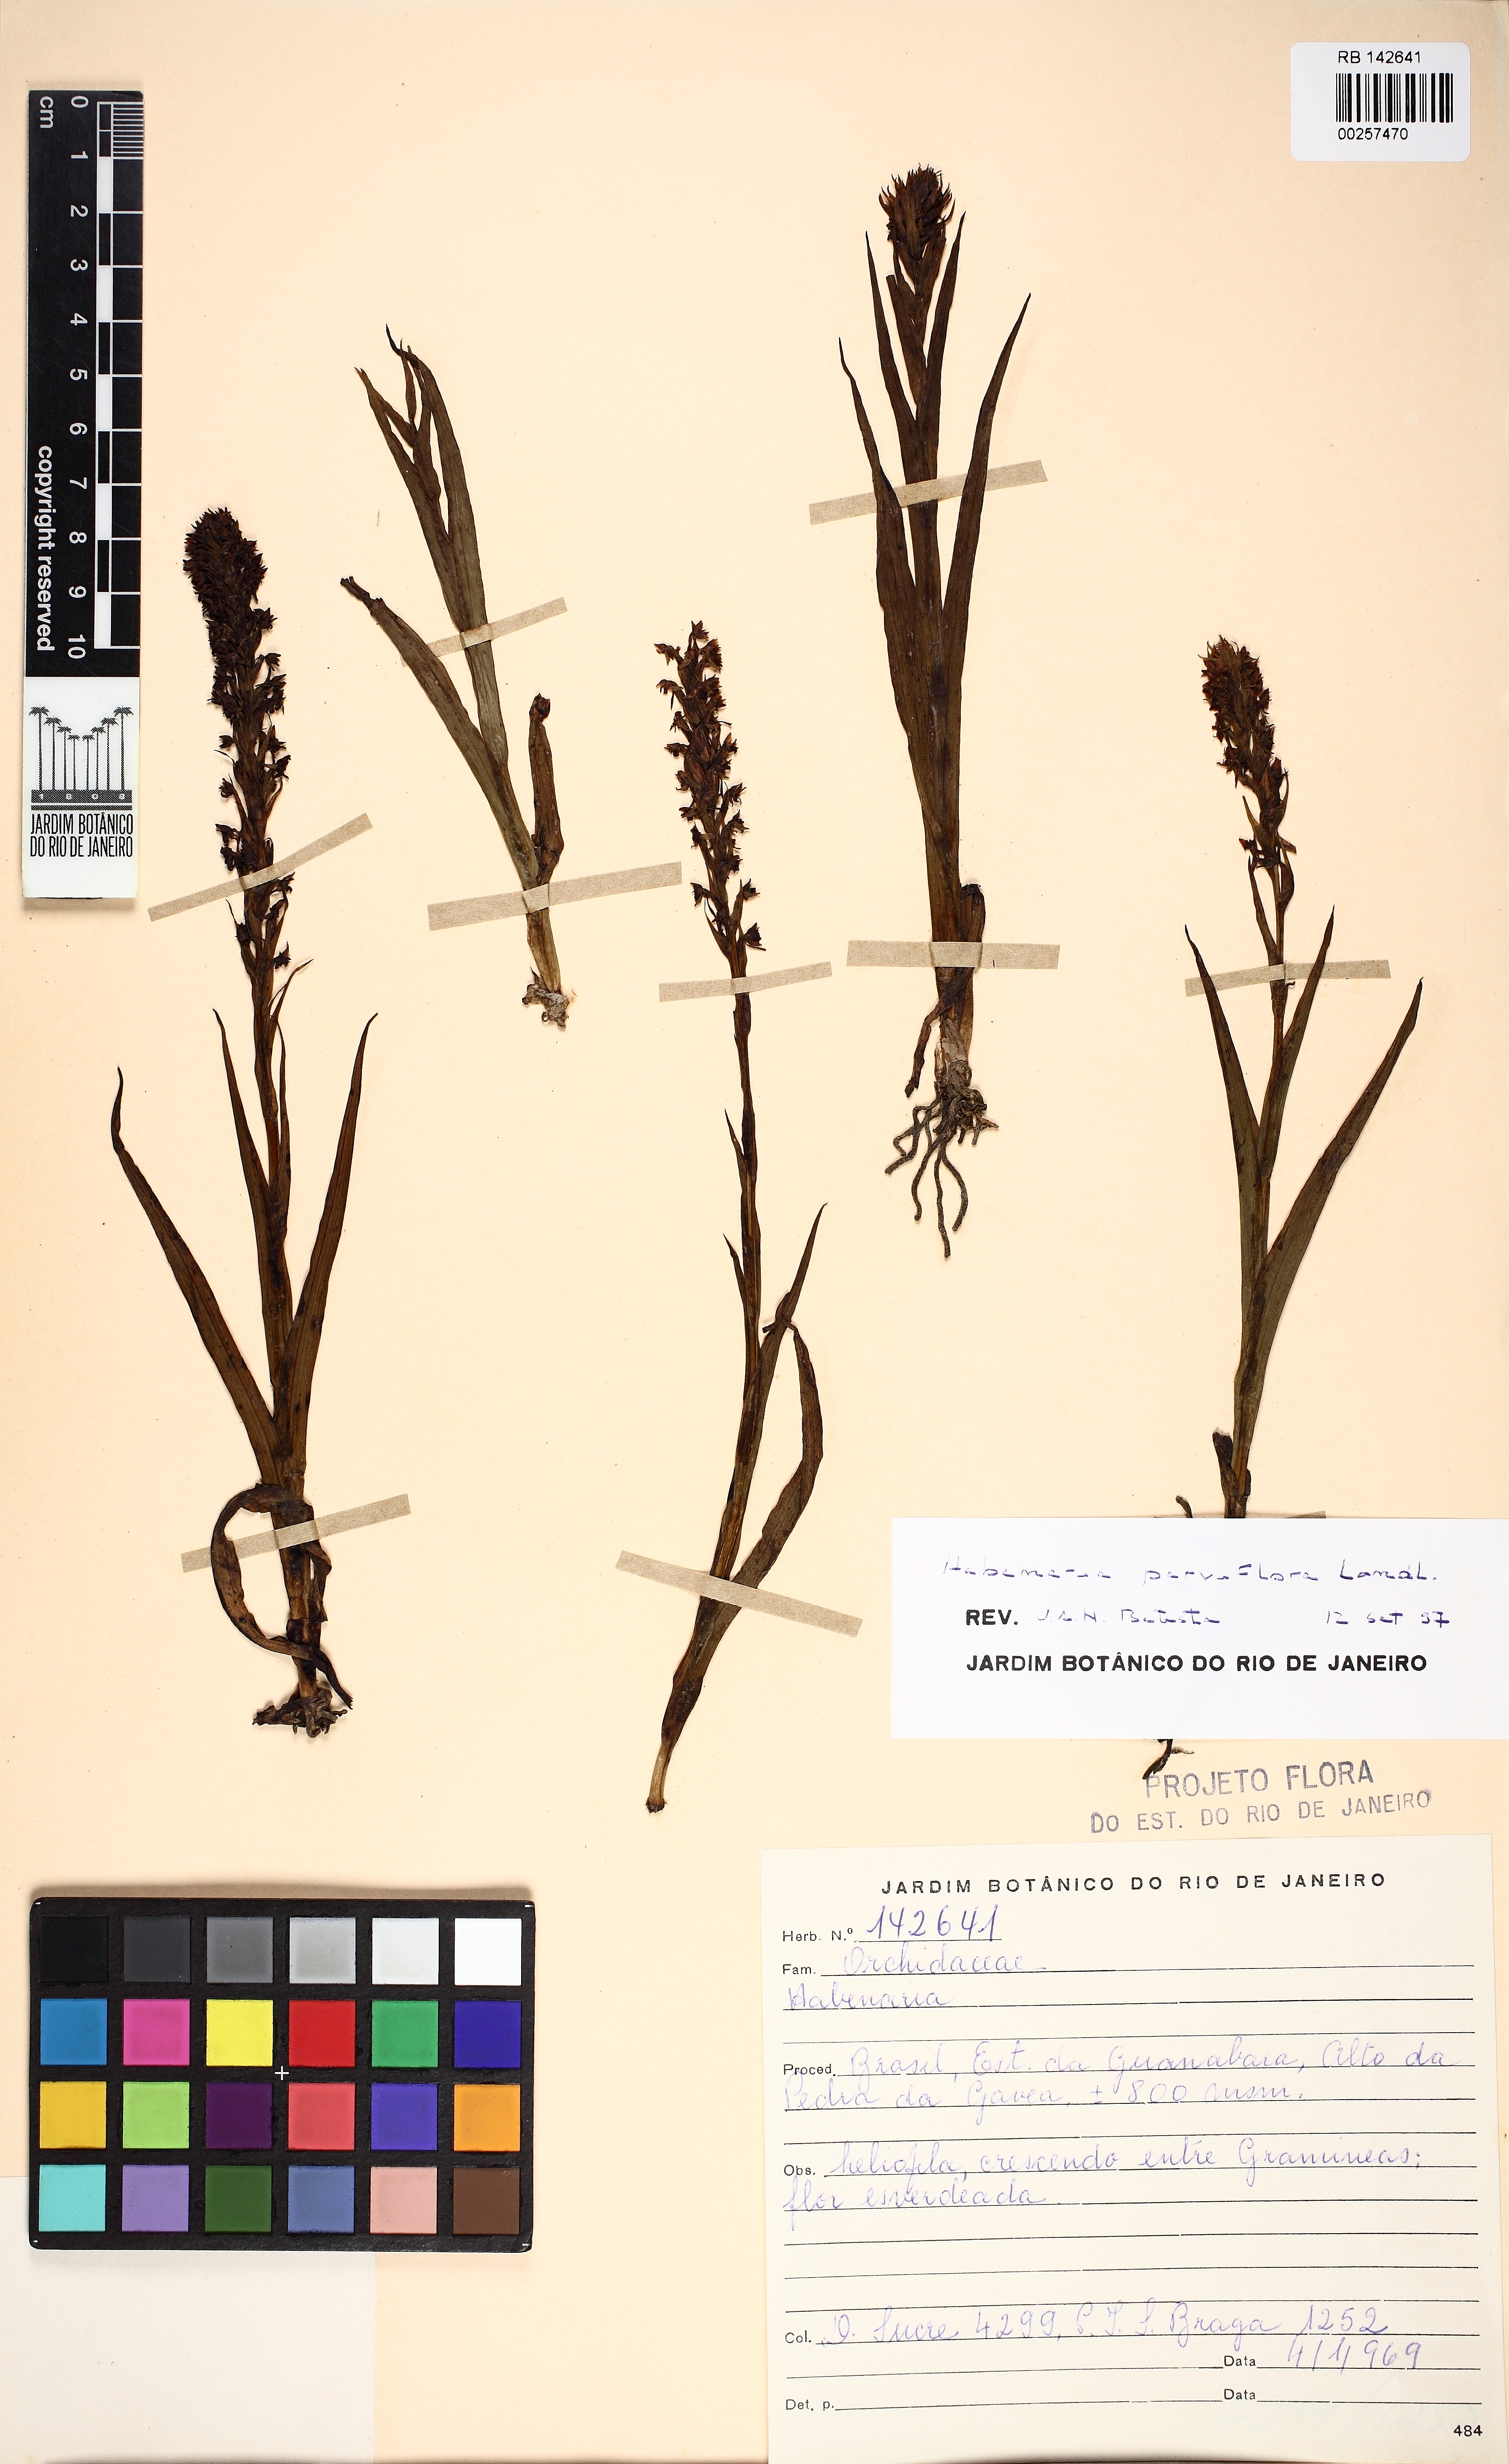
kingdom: Plantae
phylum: Tracheophyta
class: Liliopsida
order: Asparagales
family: Orchidaceae
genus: Habenaria
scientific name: Habenaria parviflora
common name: Small flowered habenaria
